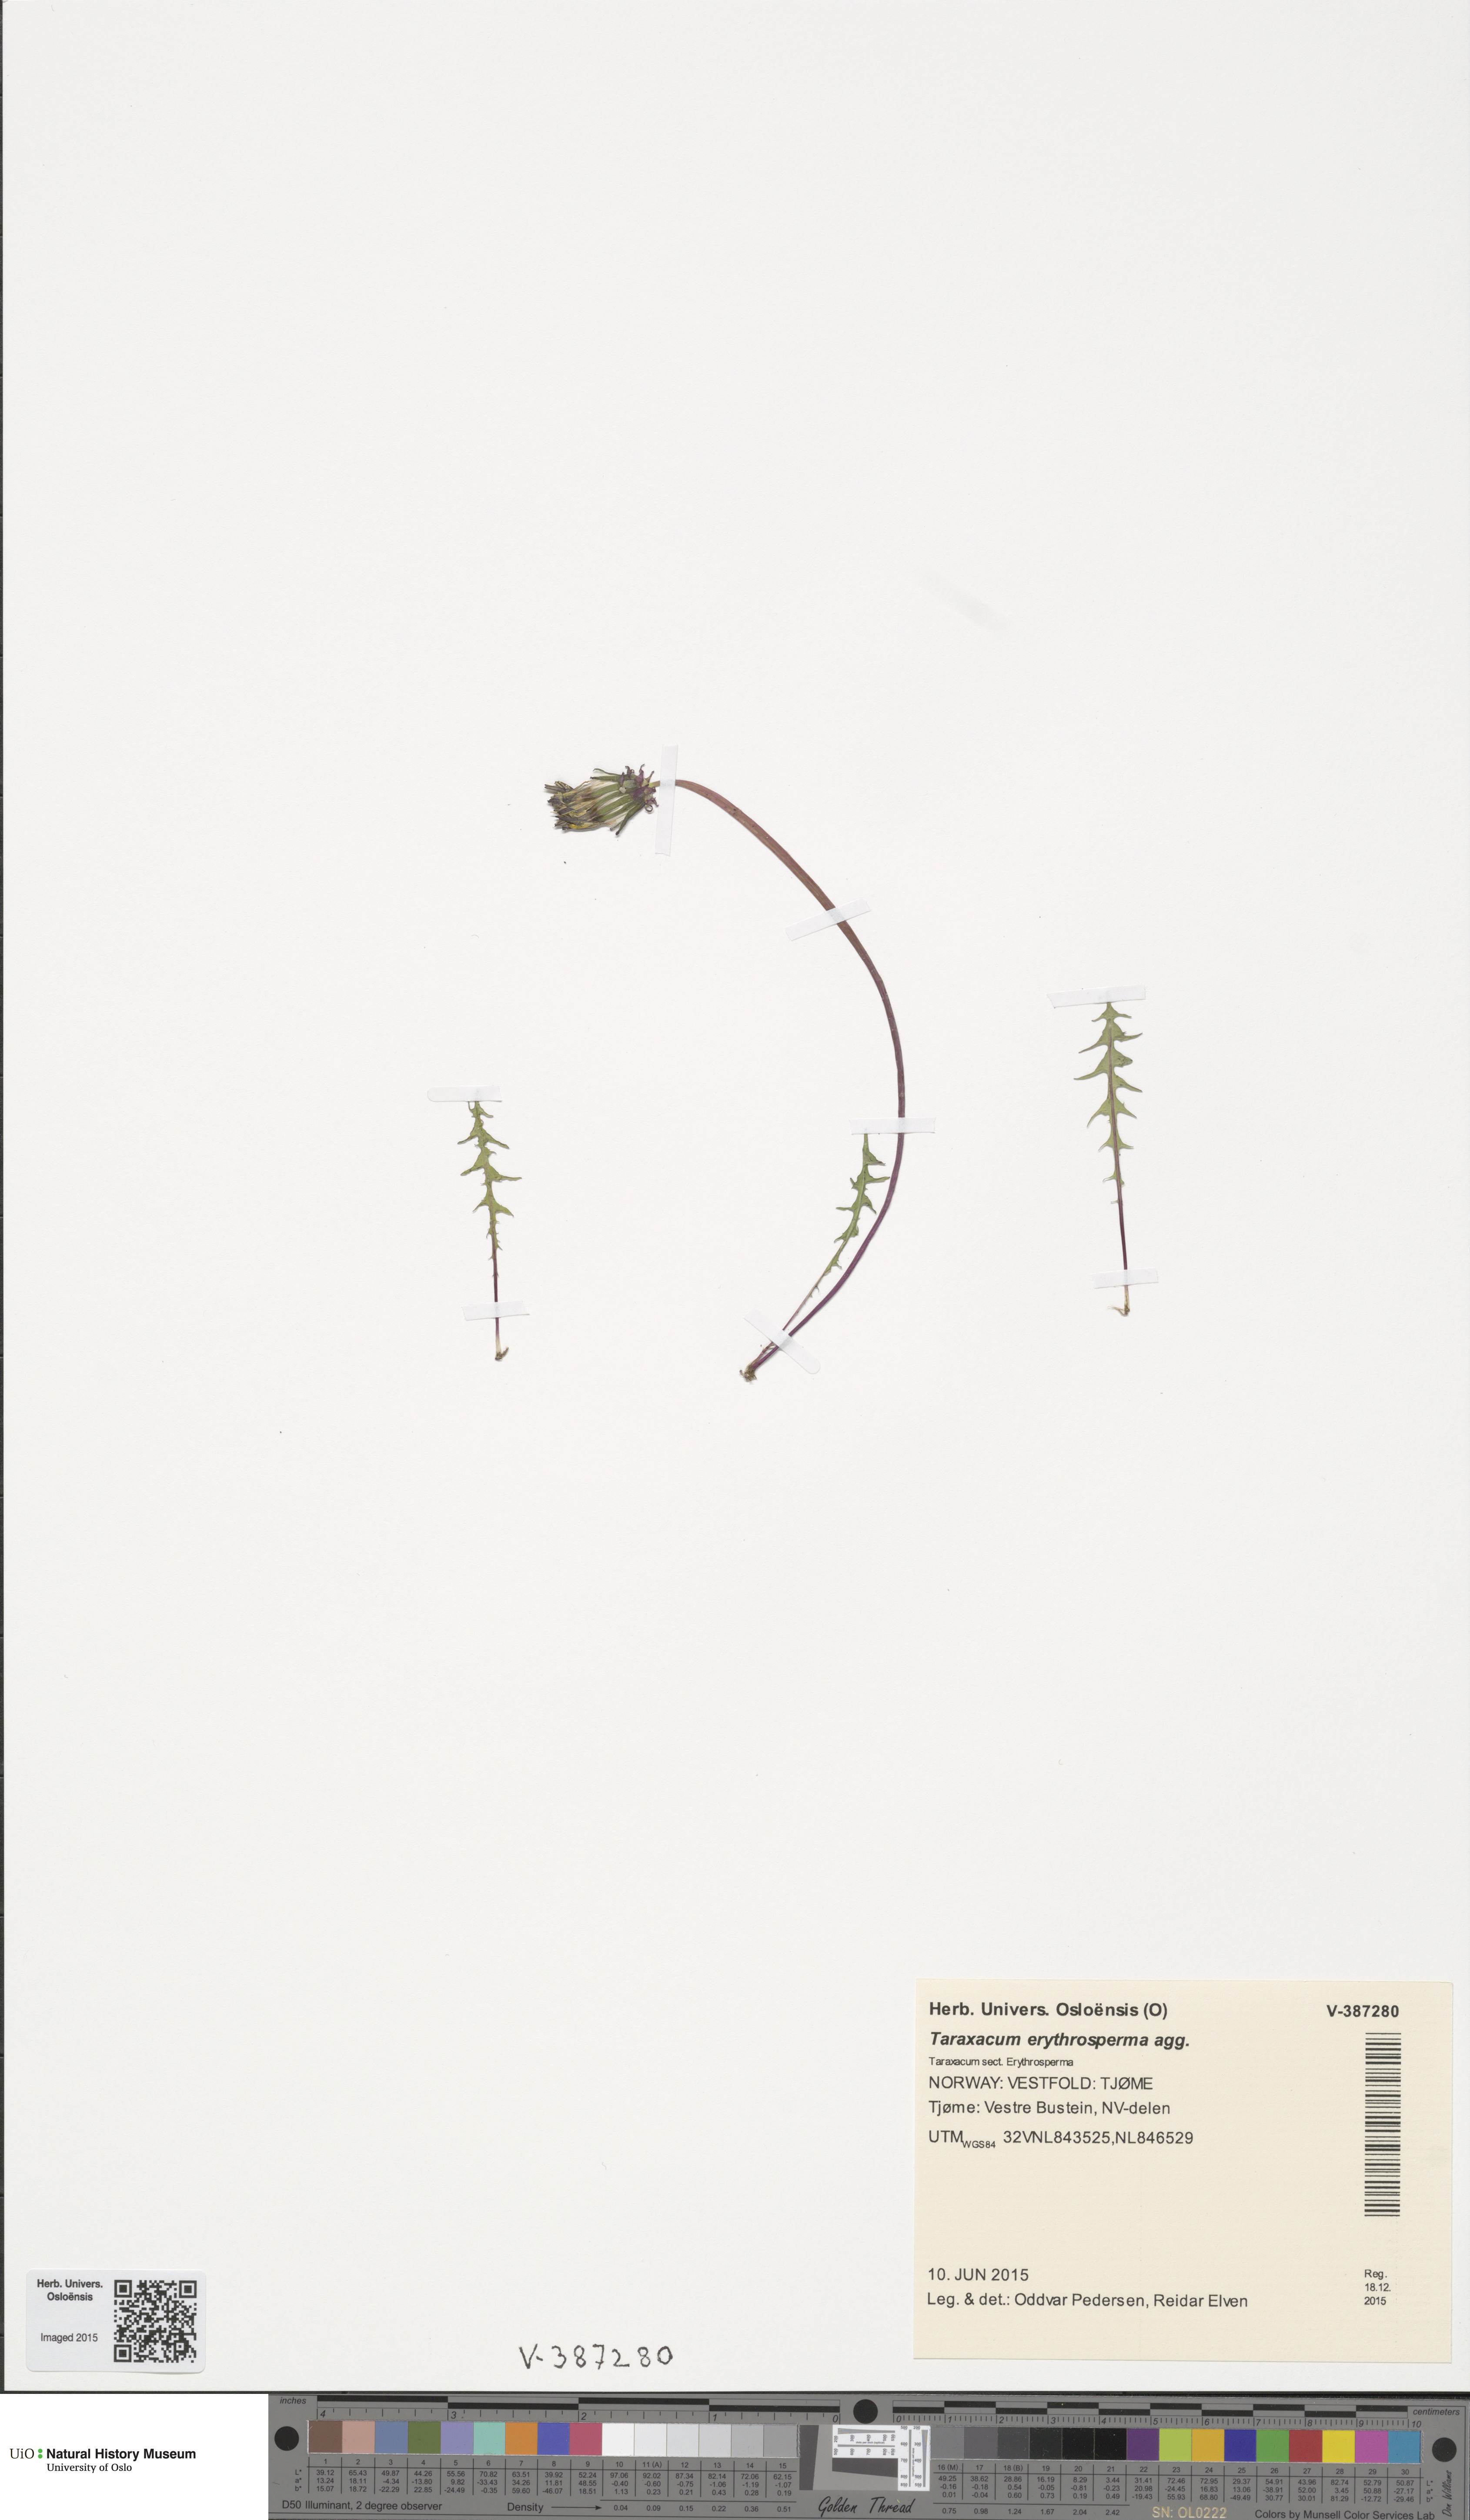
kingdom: Plantae
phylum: Tracheophyta
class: Magnoliopsida
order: Asterales
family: Asteraceae
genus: Taraxacum
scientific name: Taraxacum
